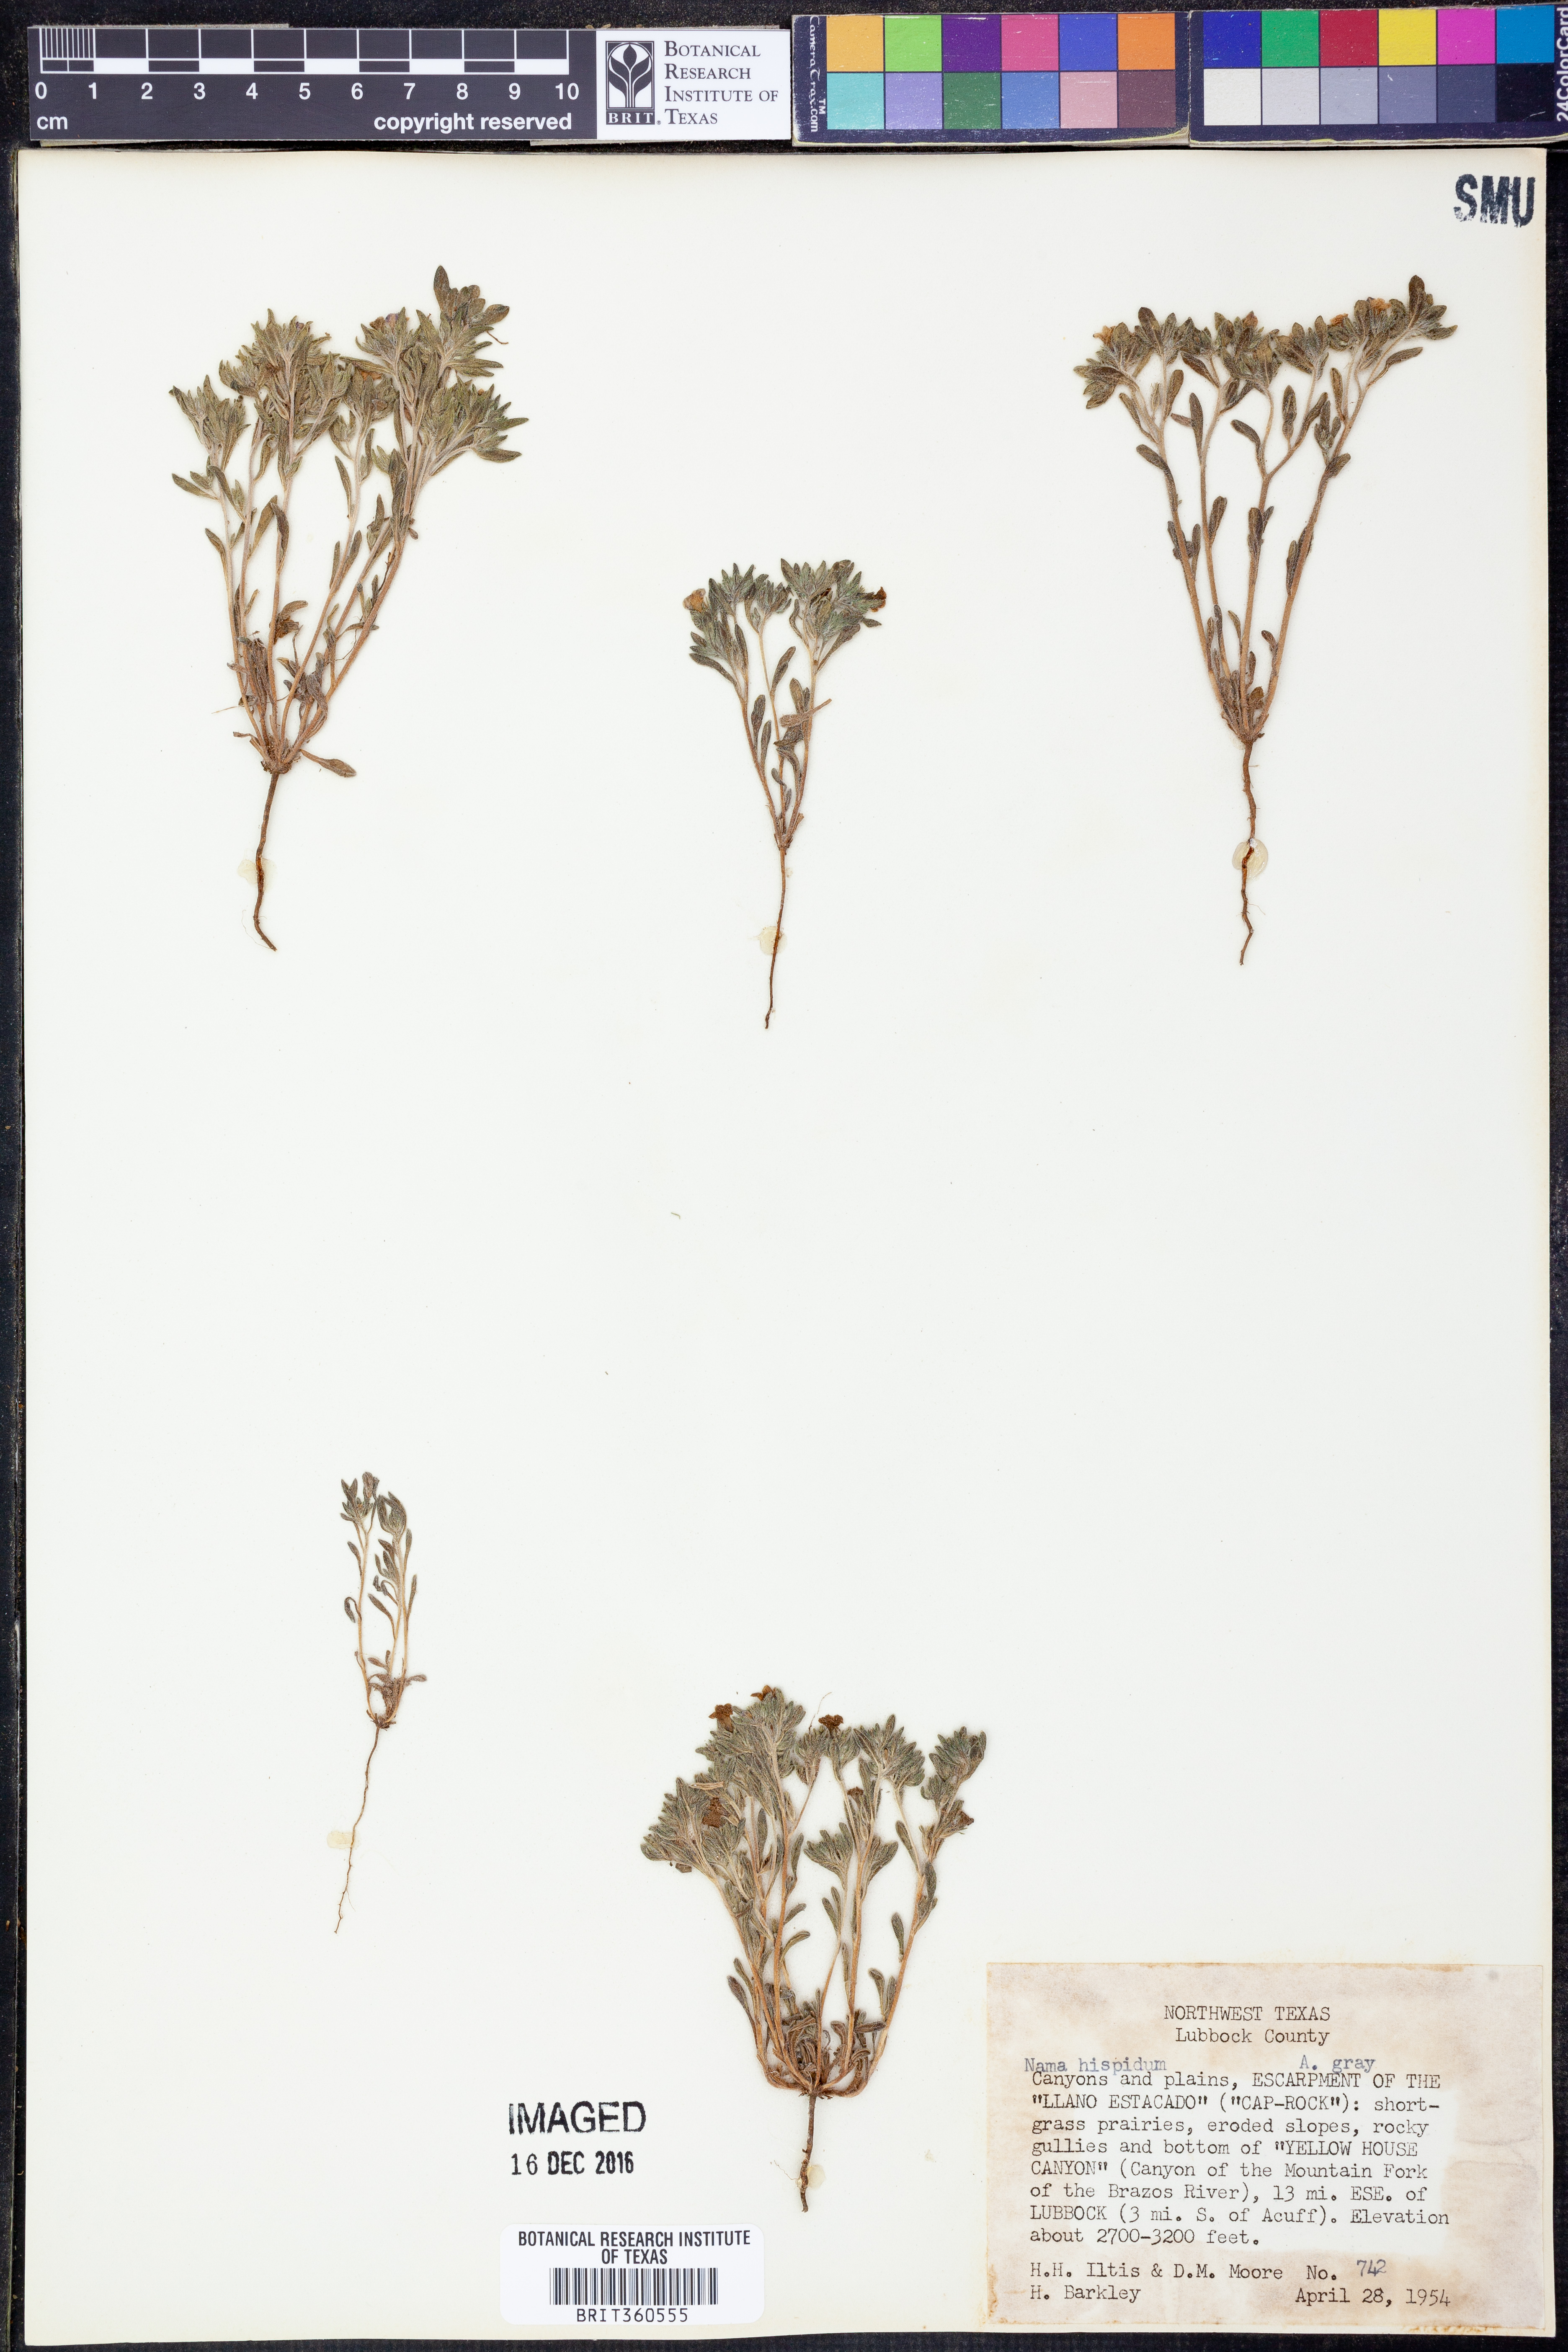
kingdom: Plantae
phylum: Tracheophyta
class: Magnoliopsida
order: Boraginales
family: Namaceae
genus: Nama
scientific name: Nama hispida
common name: Bristly nama
